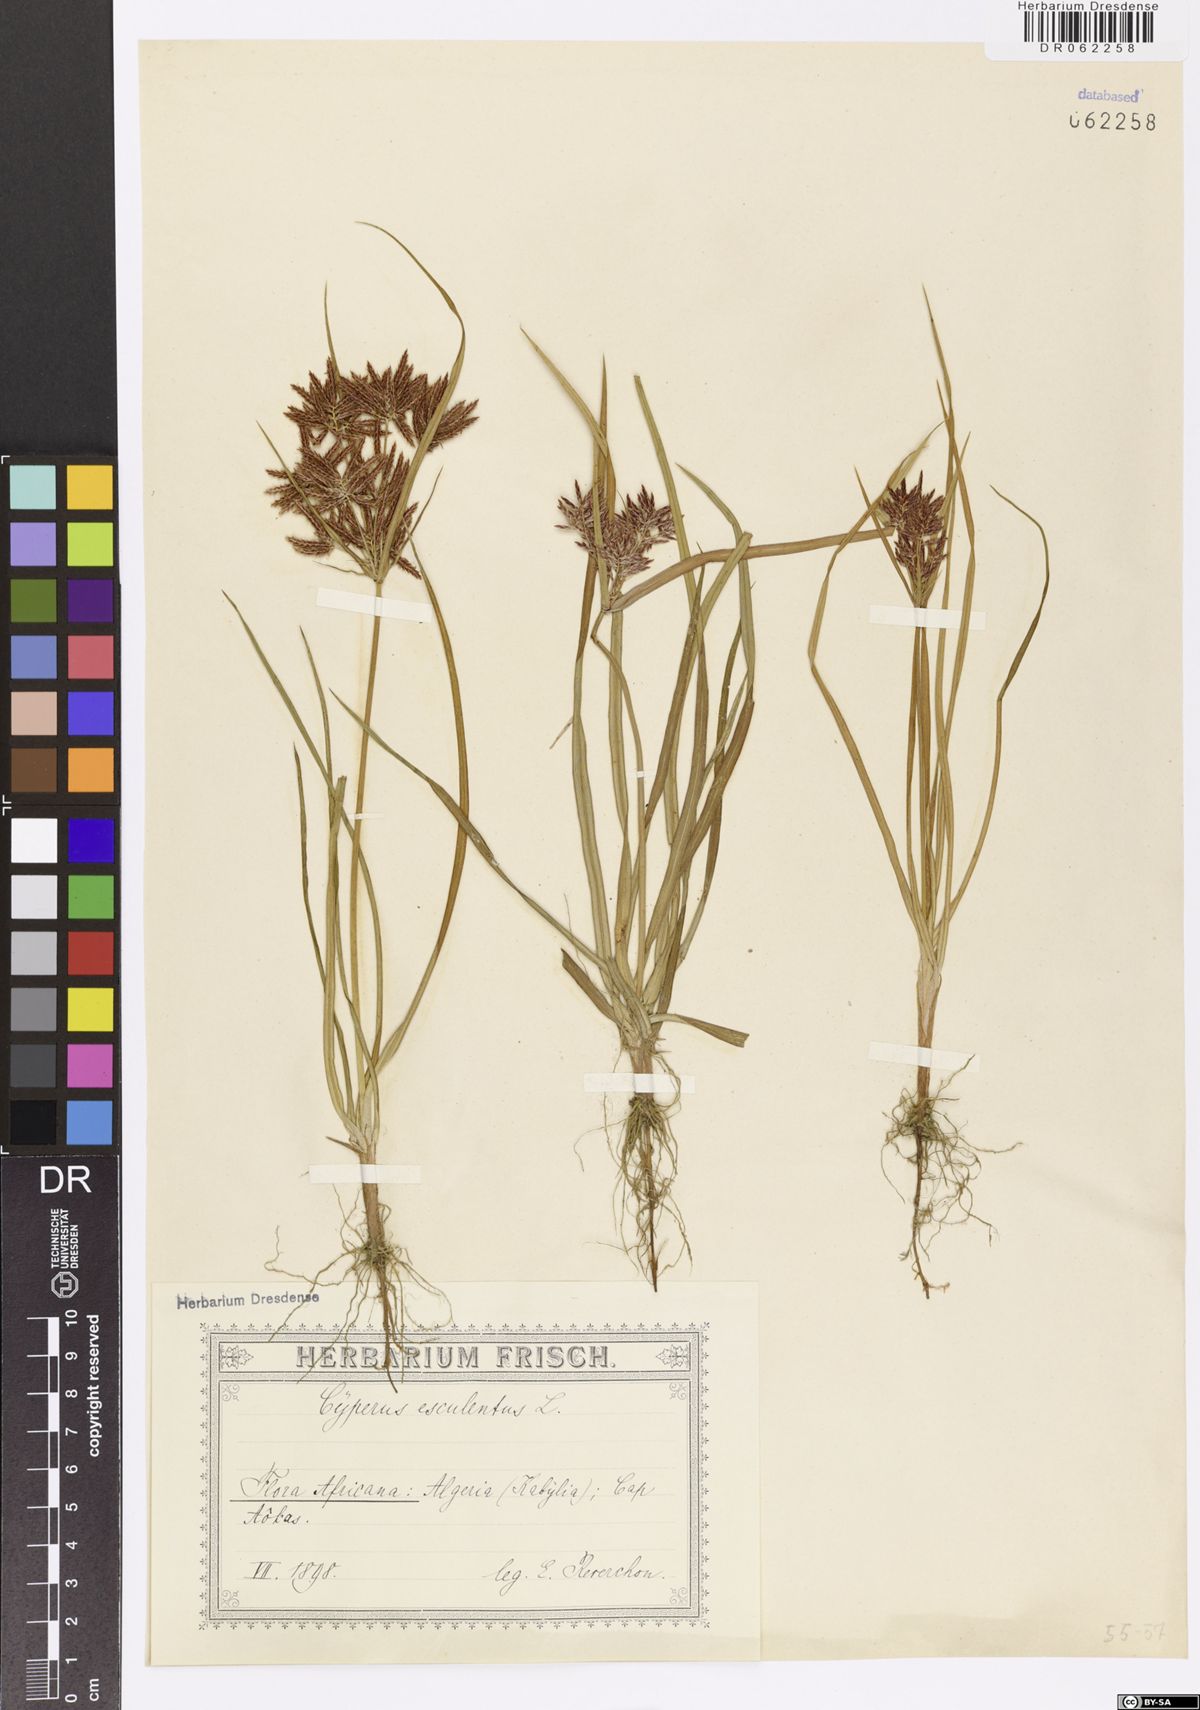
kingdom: Plantae
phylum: Tracheophyta
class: Liliopsida
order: Poales
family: Cyperaceae
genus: Cyperus
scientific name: Cyperus esculentus
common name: Yellow nutsedge
